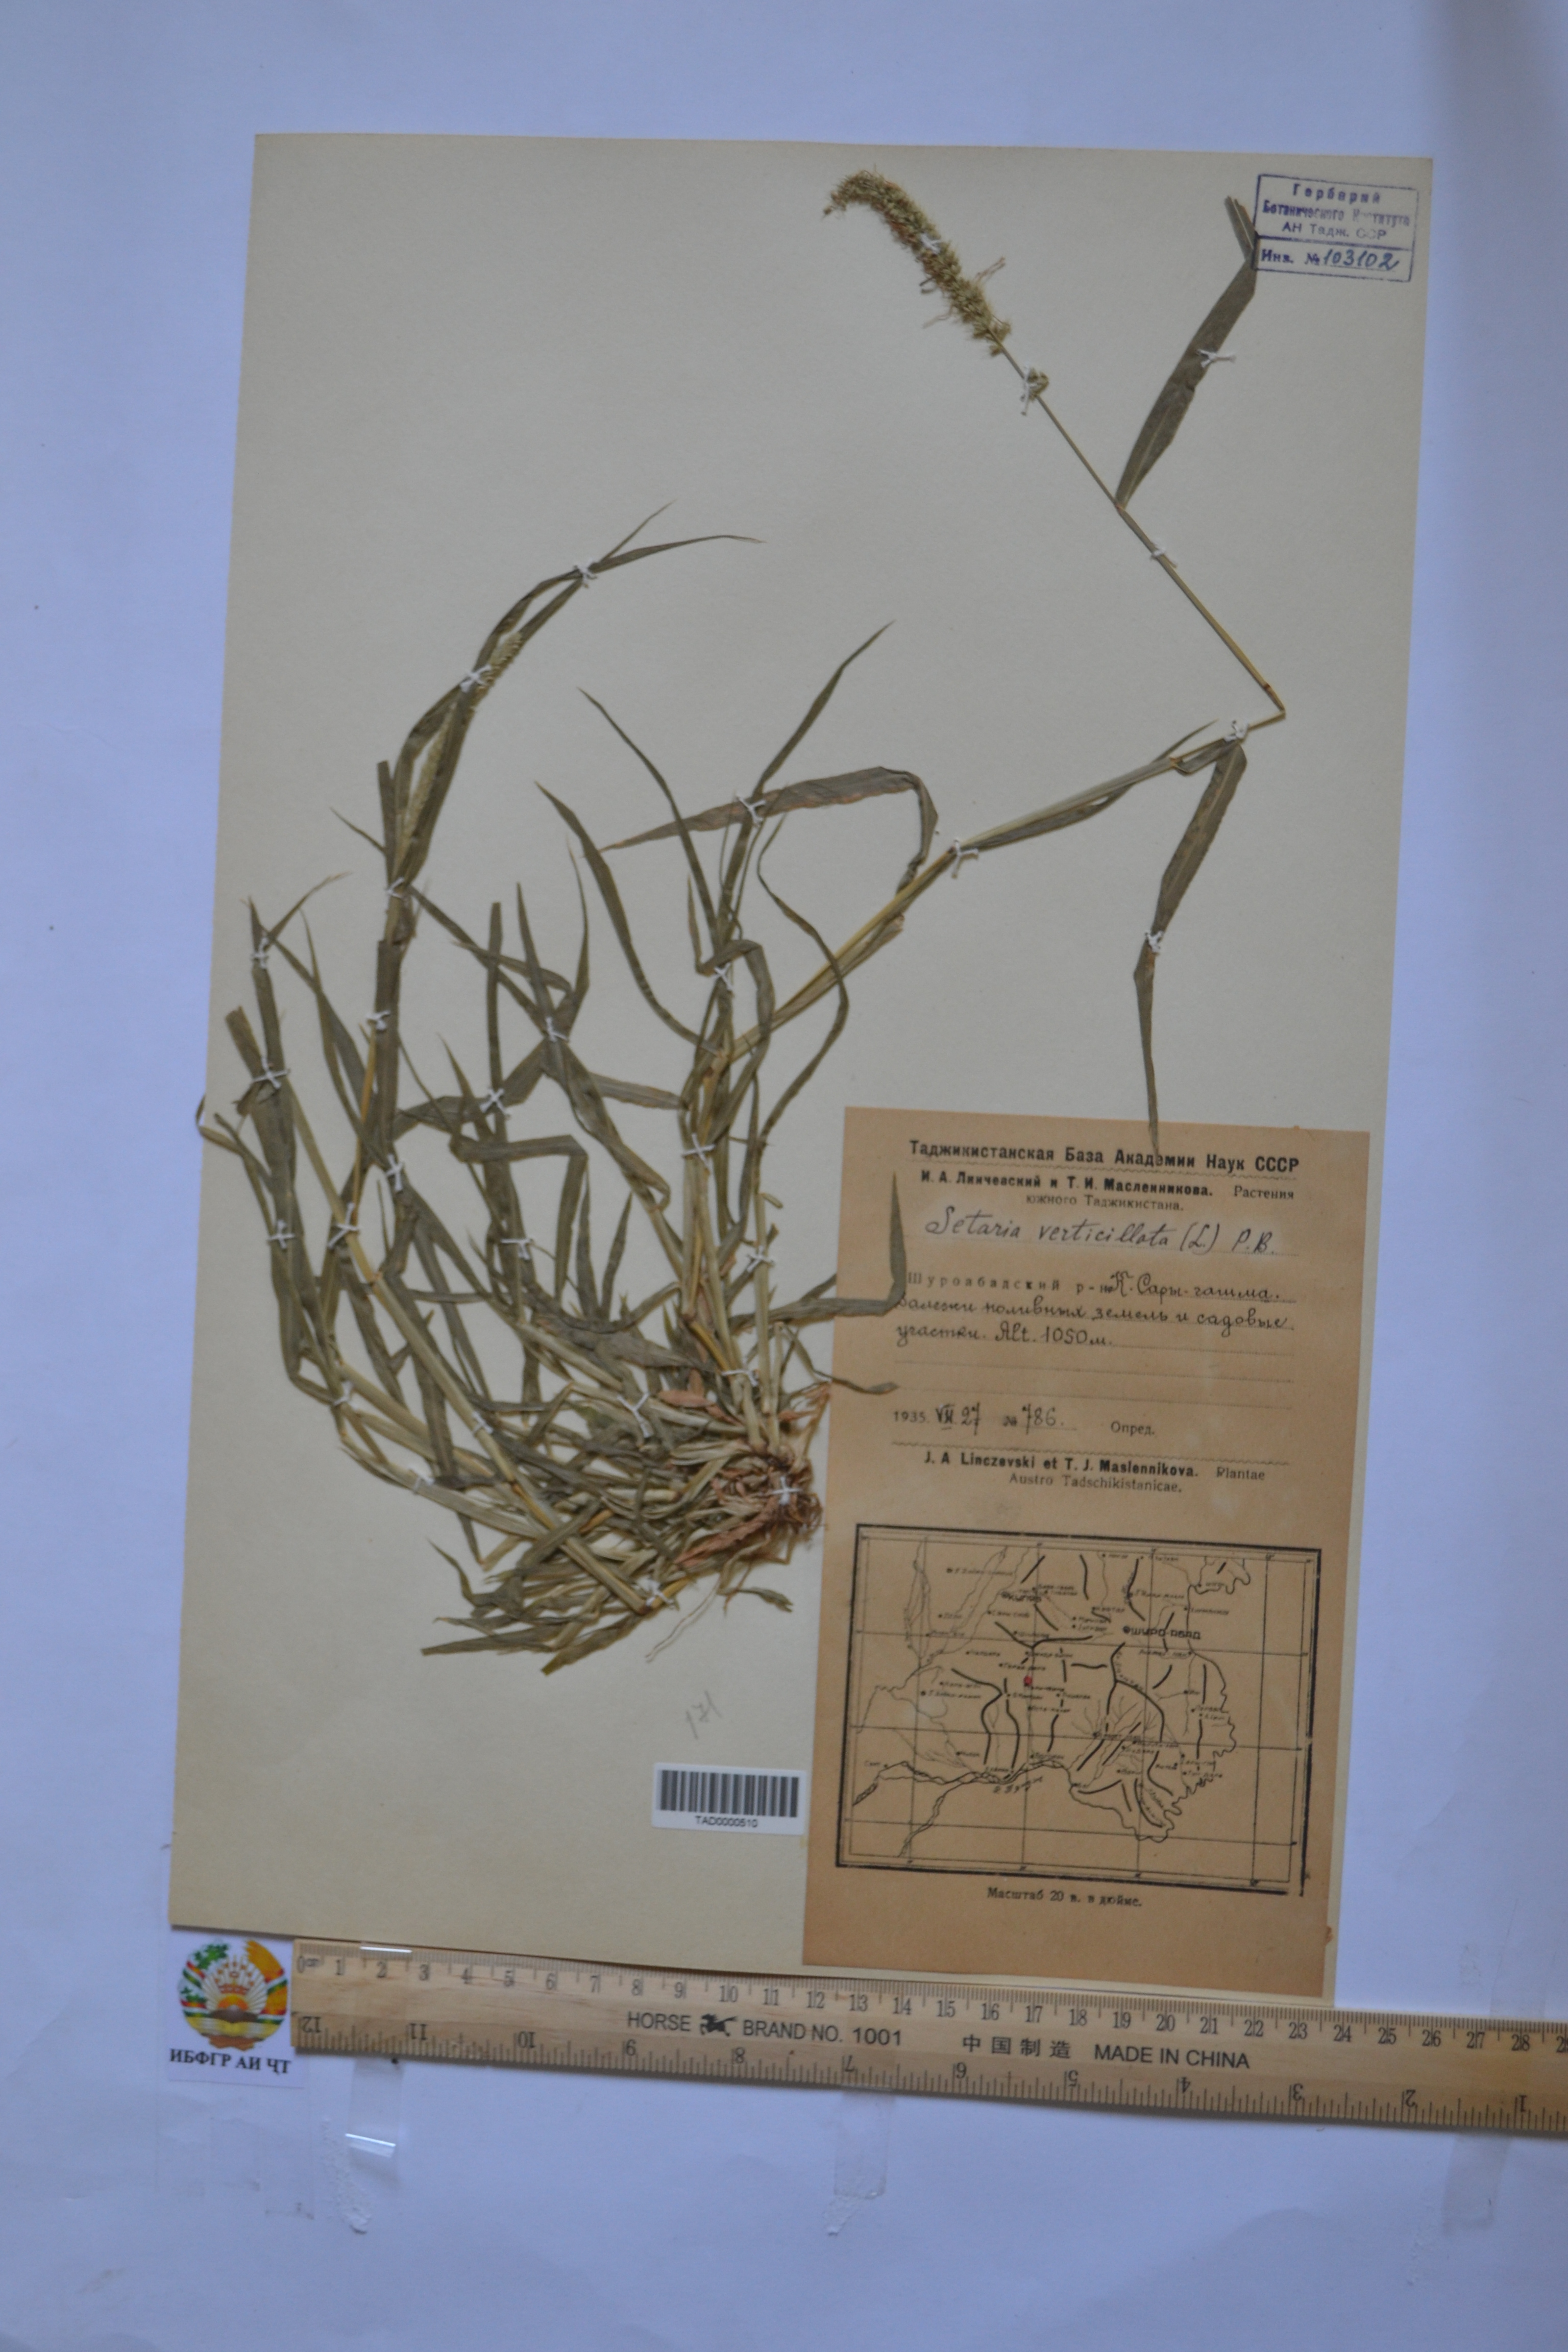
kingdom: Plantae
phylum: Tracheophyta
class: Liliopsida
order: Poales
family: Poaceae
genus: Setaria
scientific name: Setaria verticillata
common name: Hooked bristlegrass
